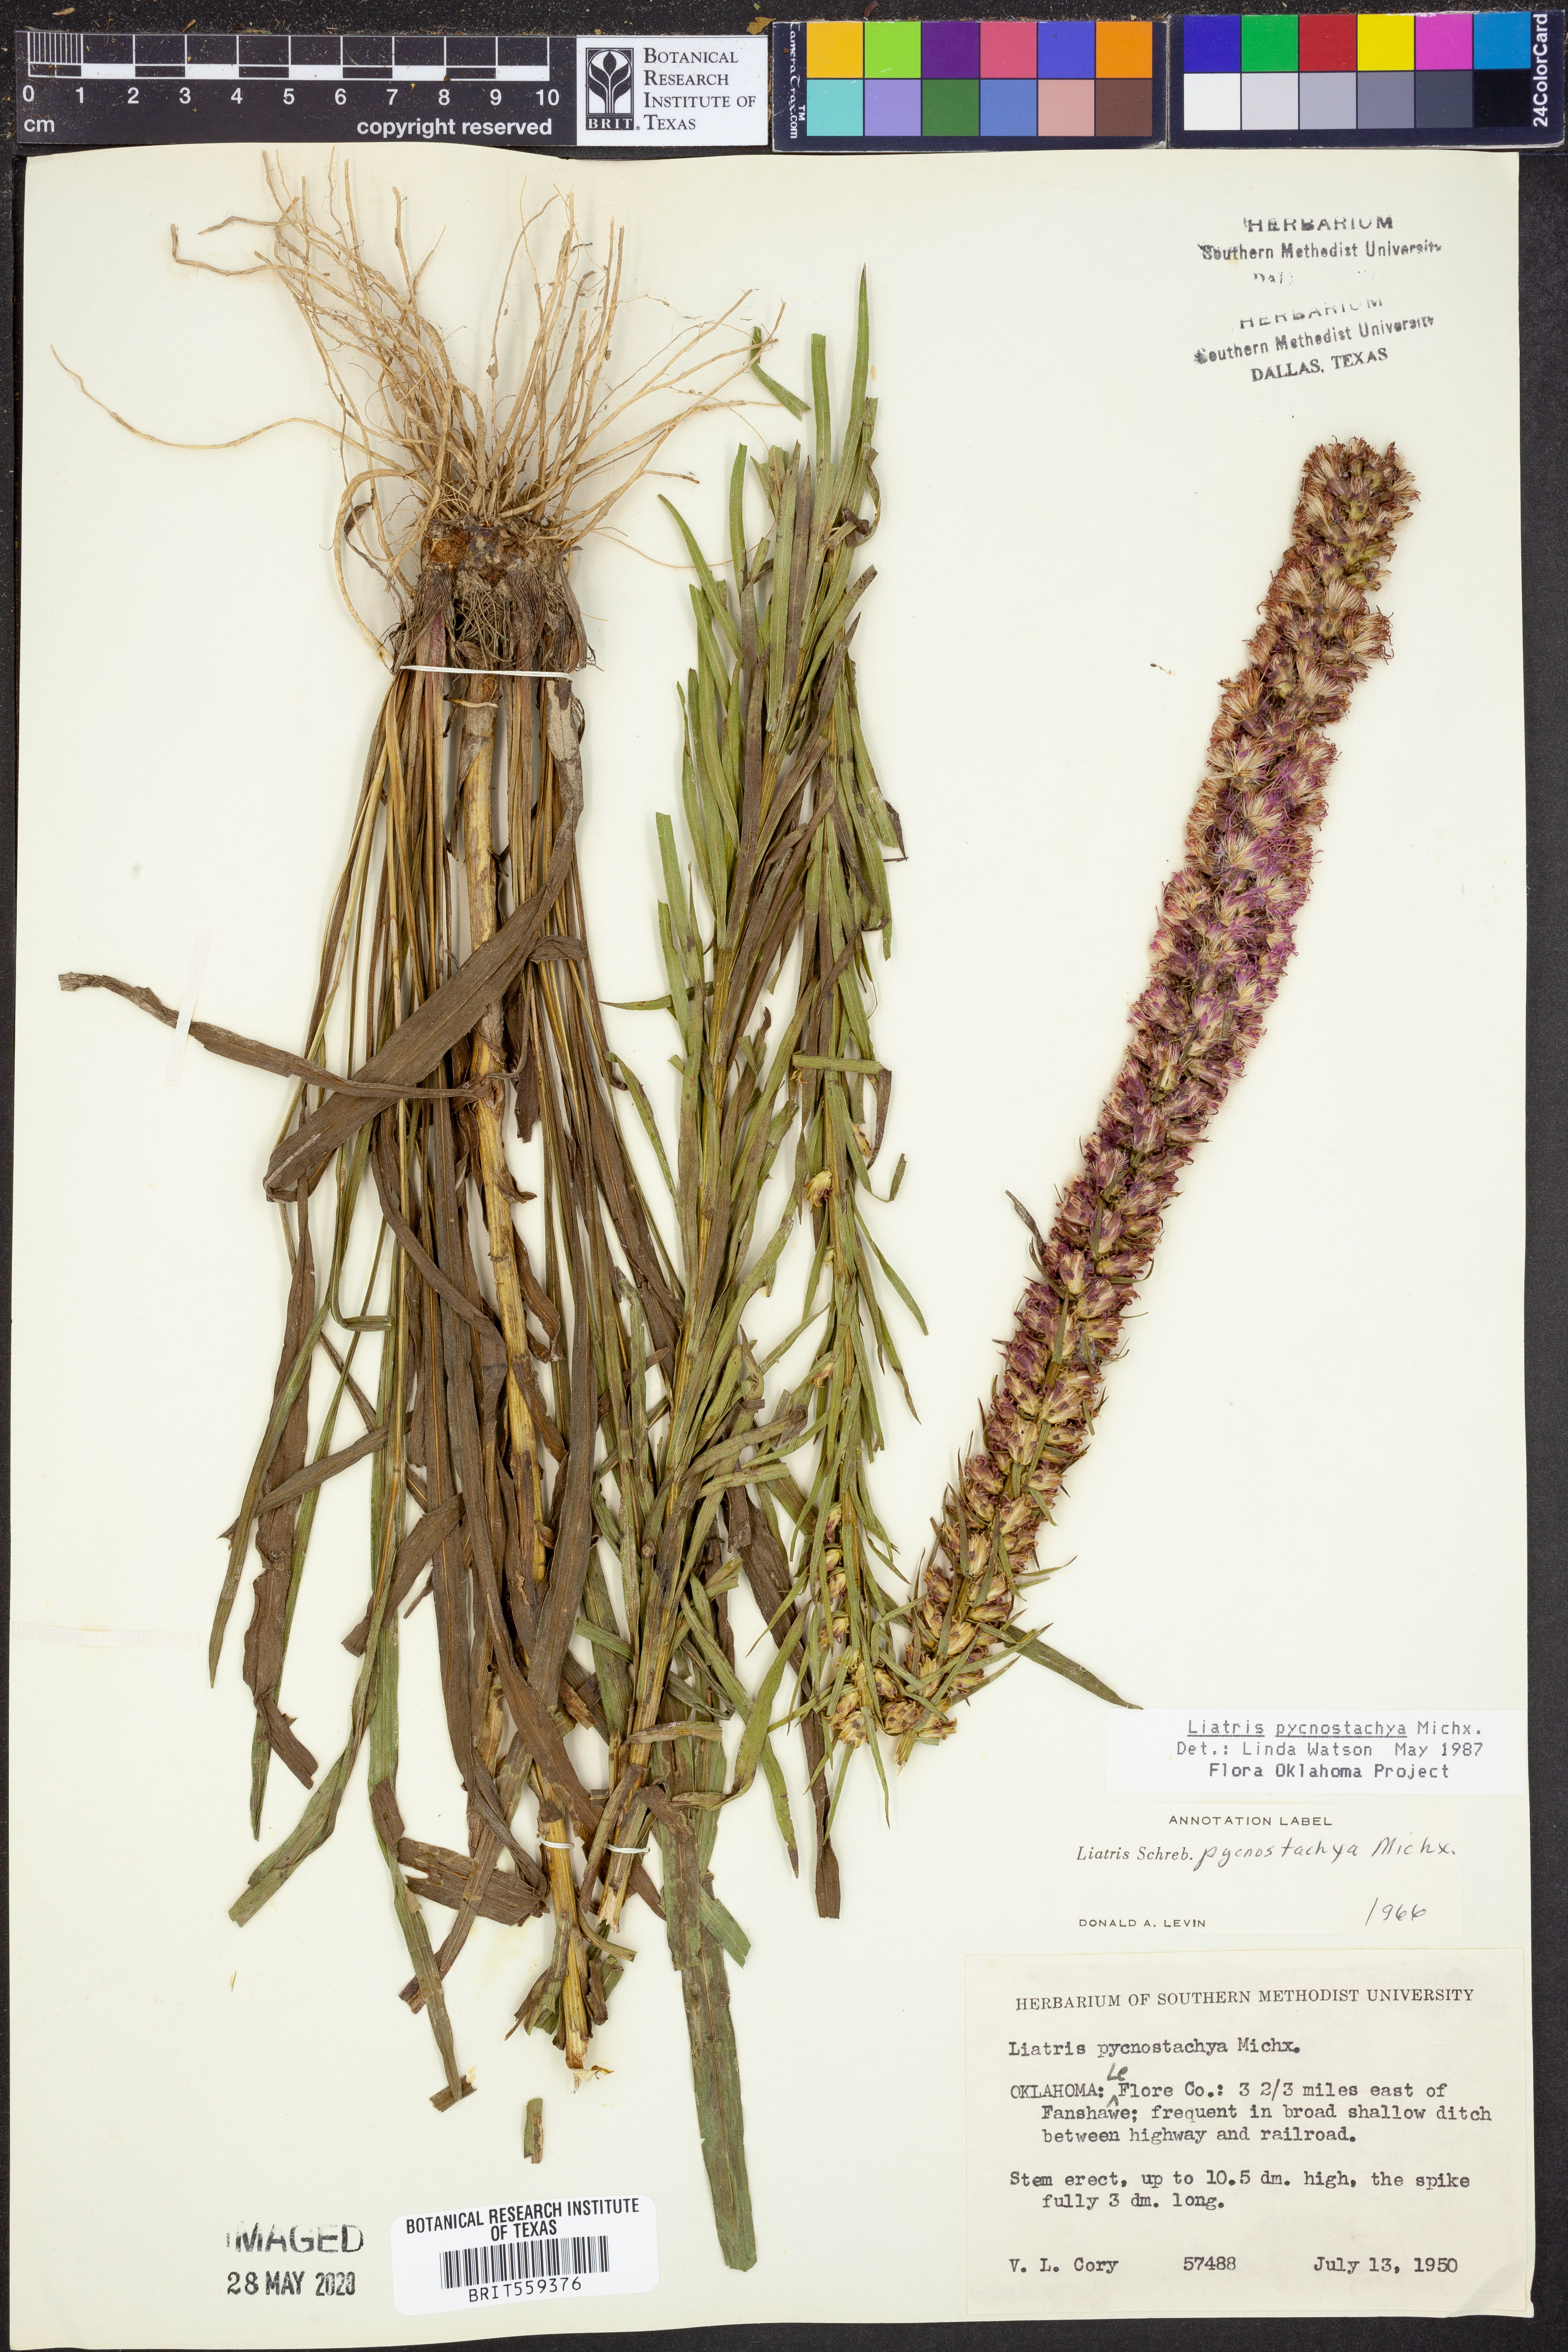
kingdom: Plantae
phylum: Tracheophyta
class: Magnoliopsida
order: Asterales
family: Asteraceae
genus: Liatris
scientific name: Liatris pycnostachya
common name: Cattail gayfeather
